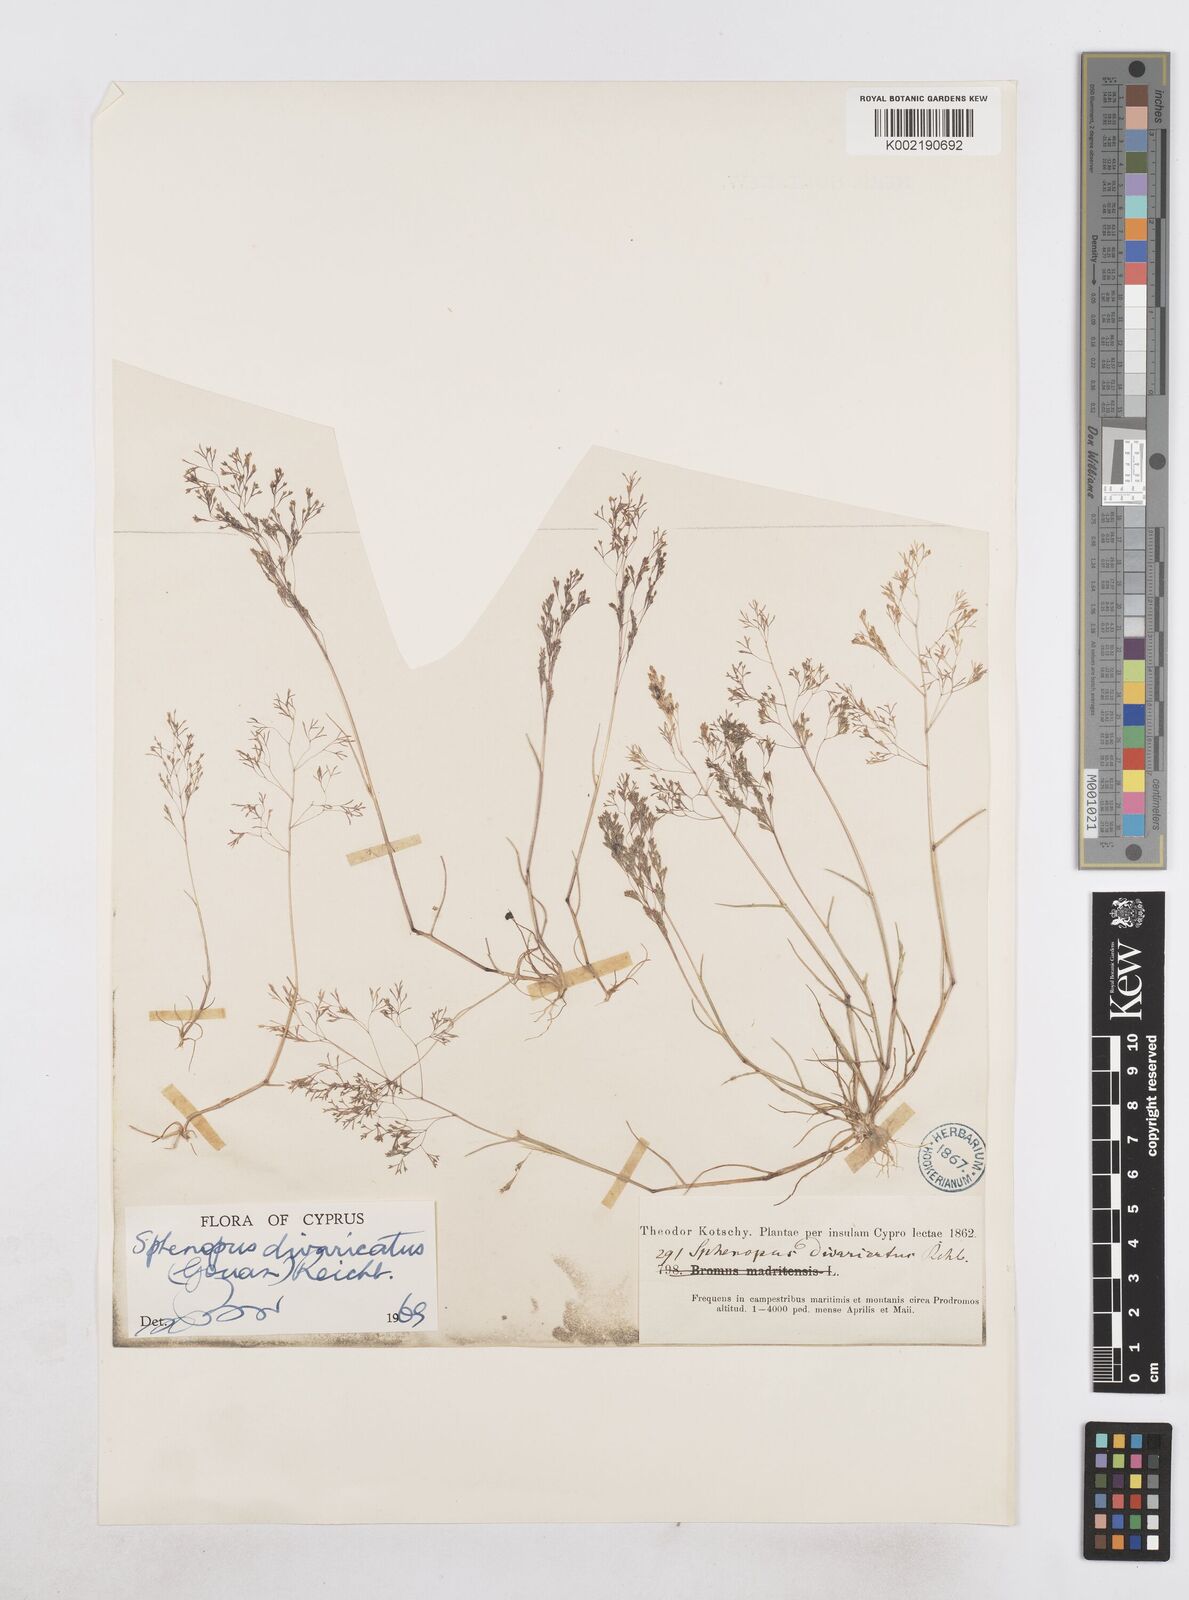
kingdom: Plantae
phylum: Tracheophyta
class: Liliopsida
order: Poales
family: Poaceae
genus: Sphenopus
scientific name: Sphenopus divaricatus
